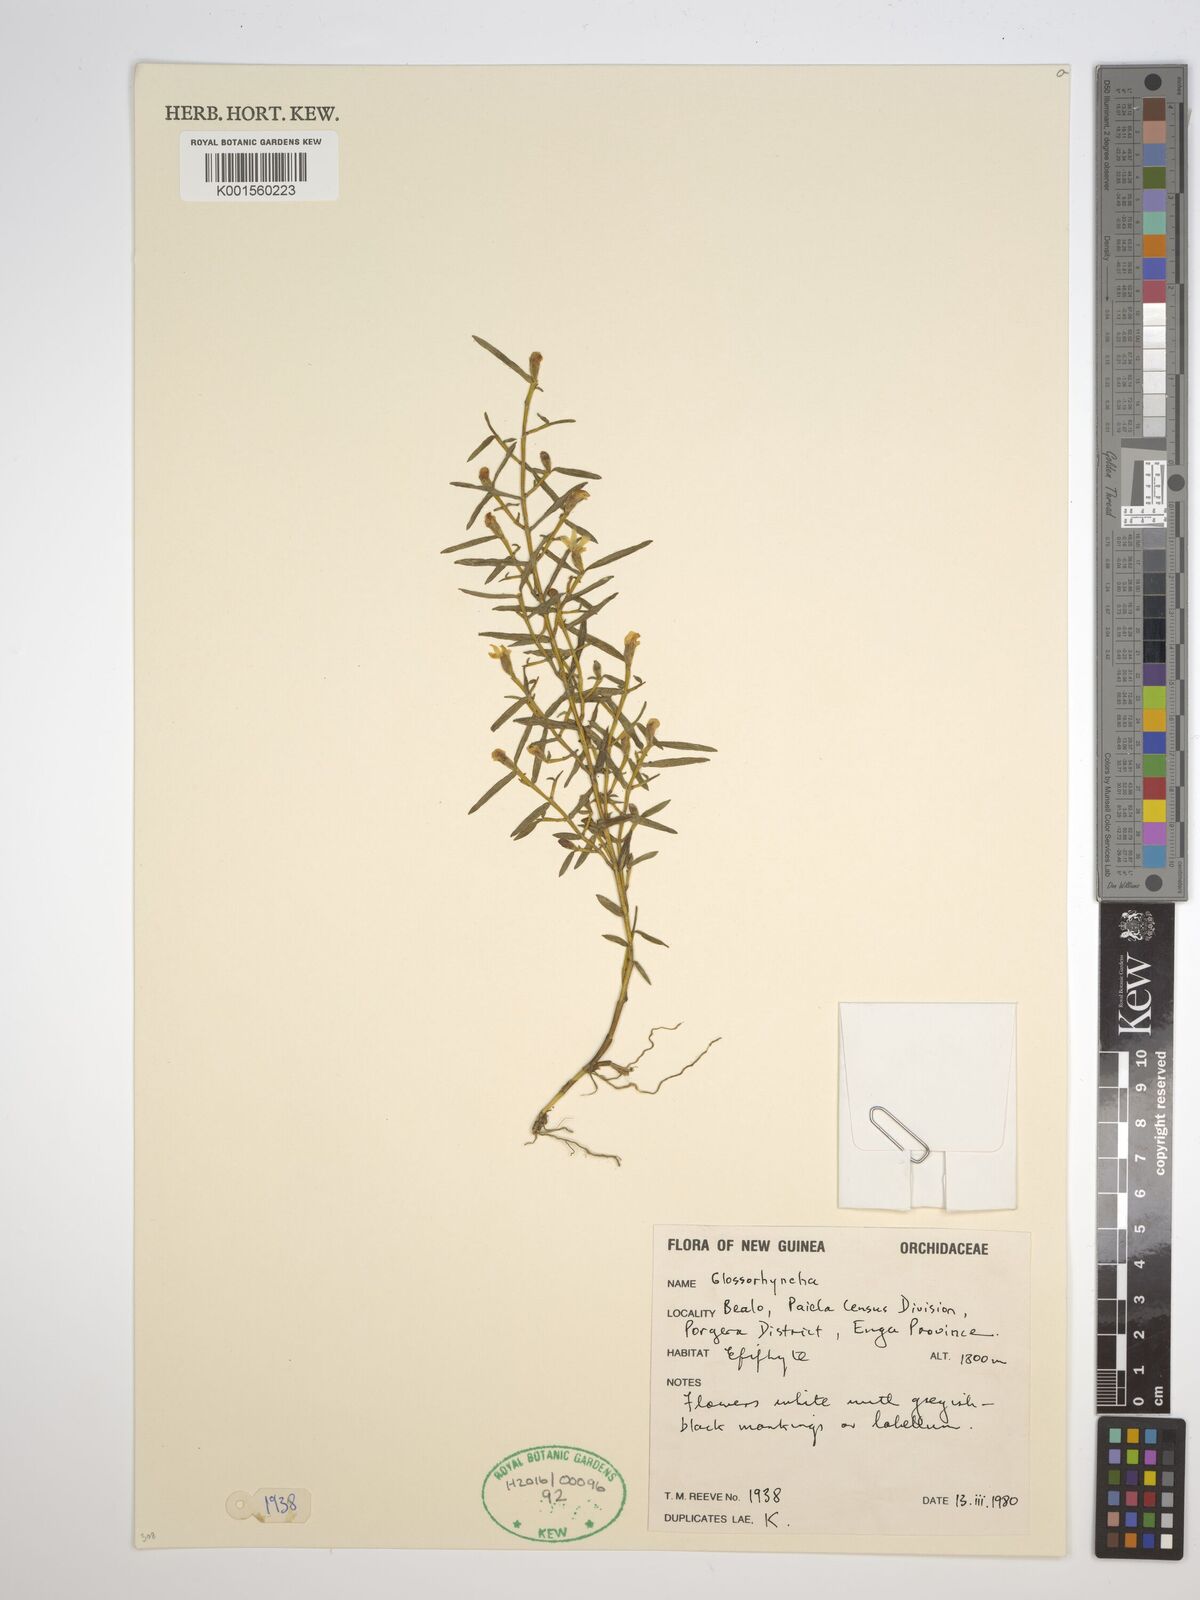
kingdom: Plantae
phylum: Tracheophyta
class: Liliopsida
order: Asparagales
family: Orchidaceae
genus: Glomera
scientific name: Glomera
